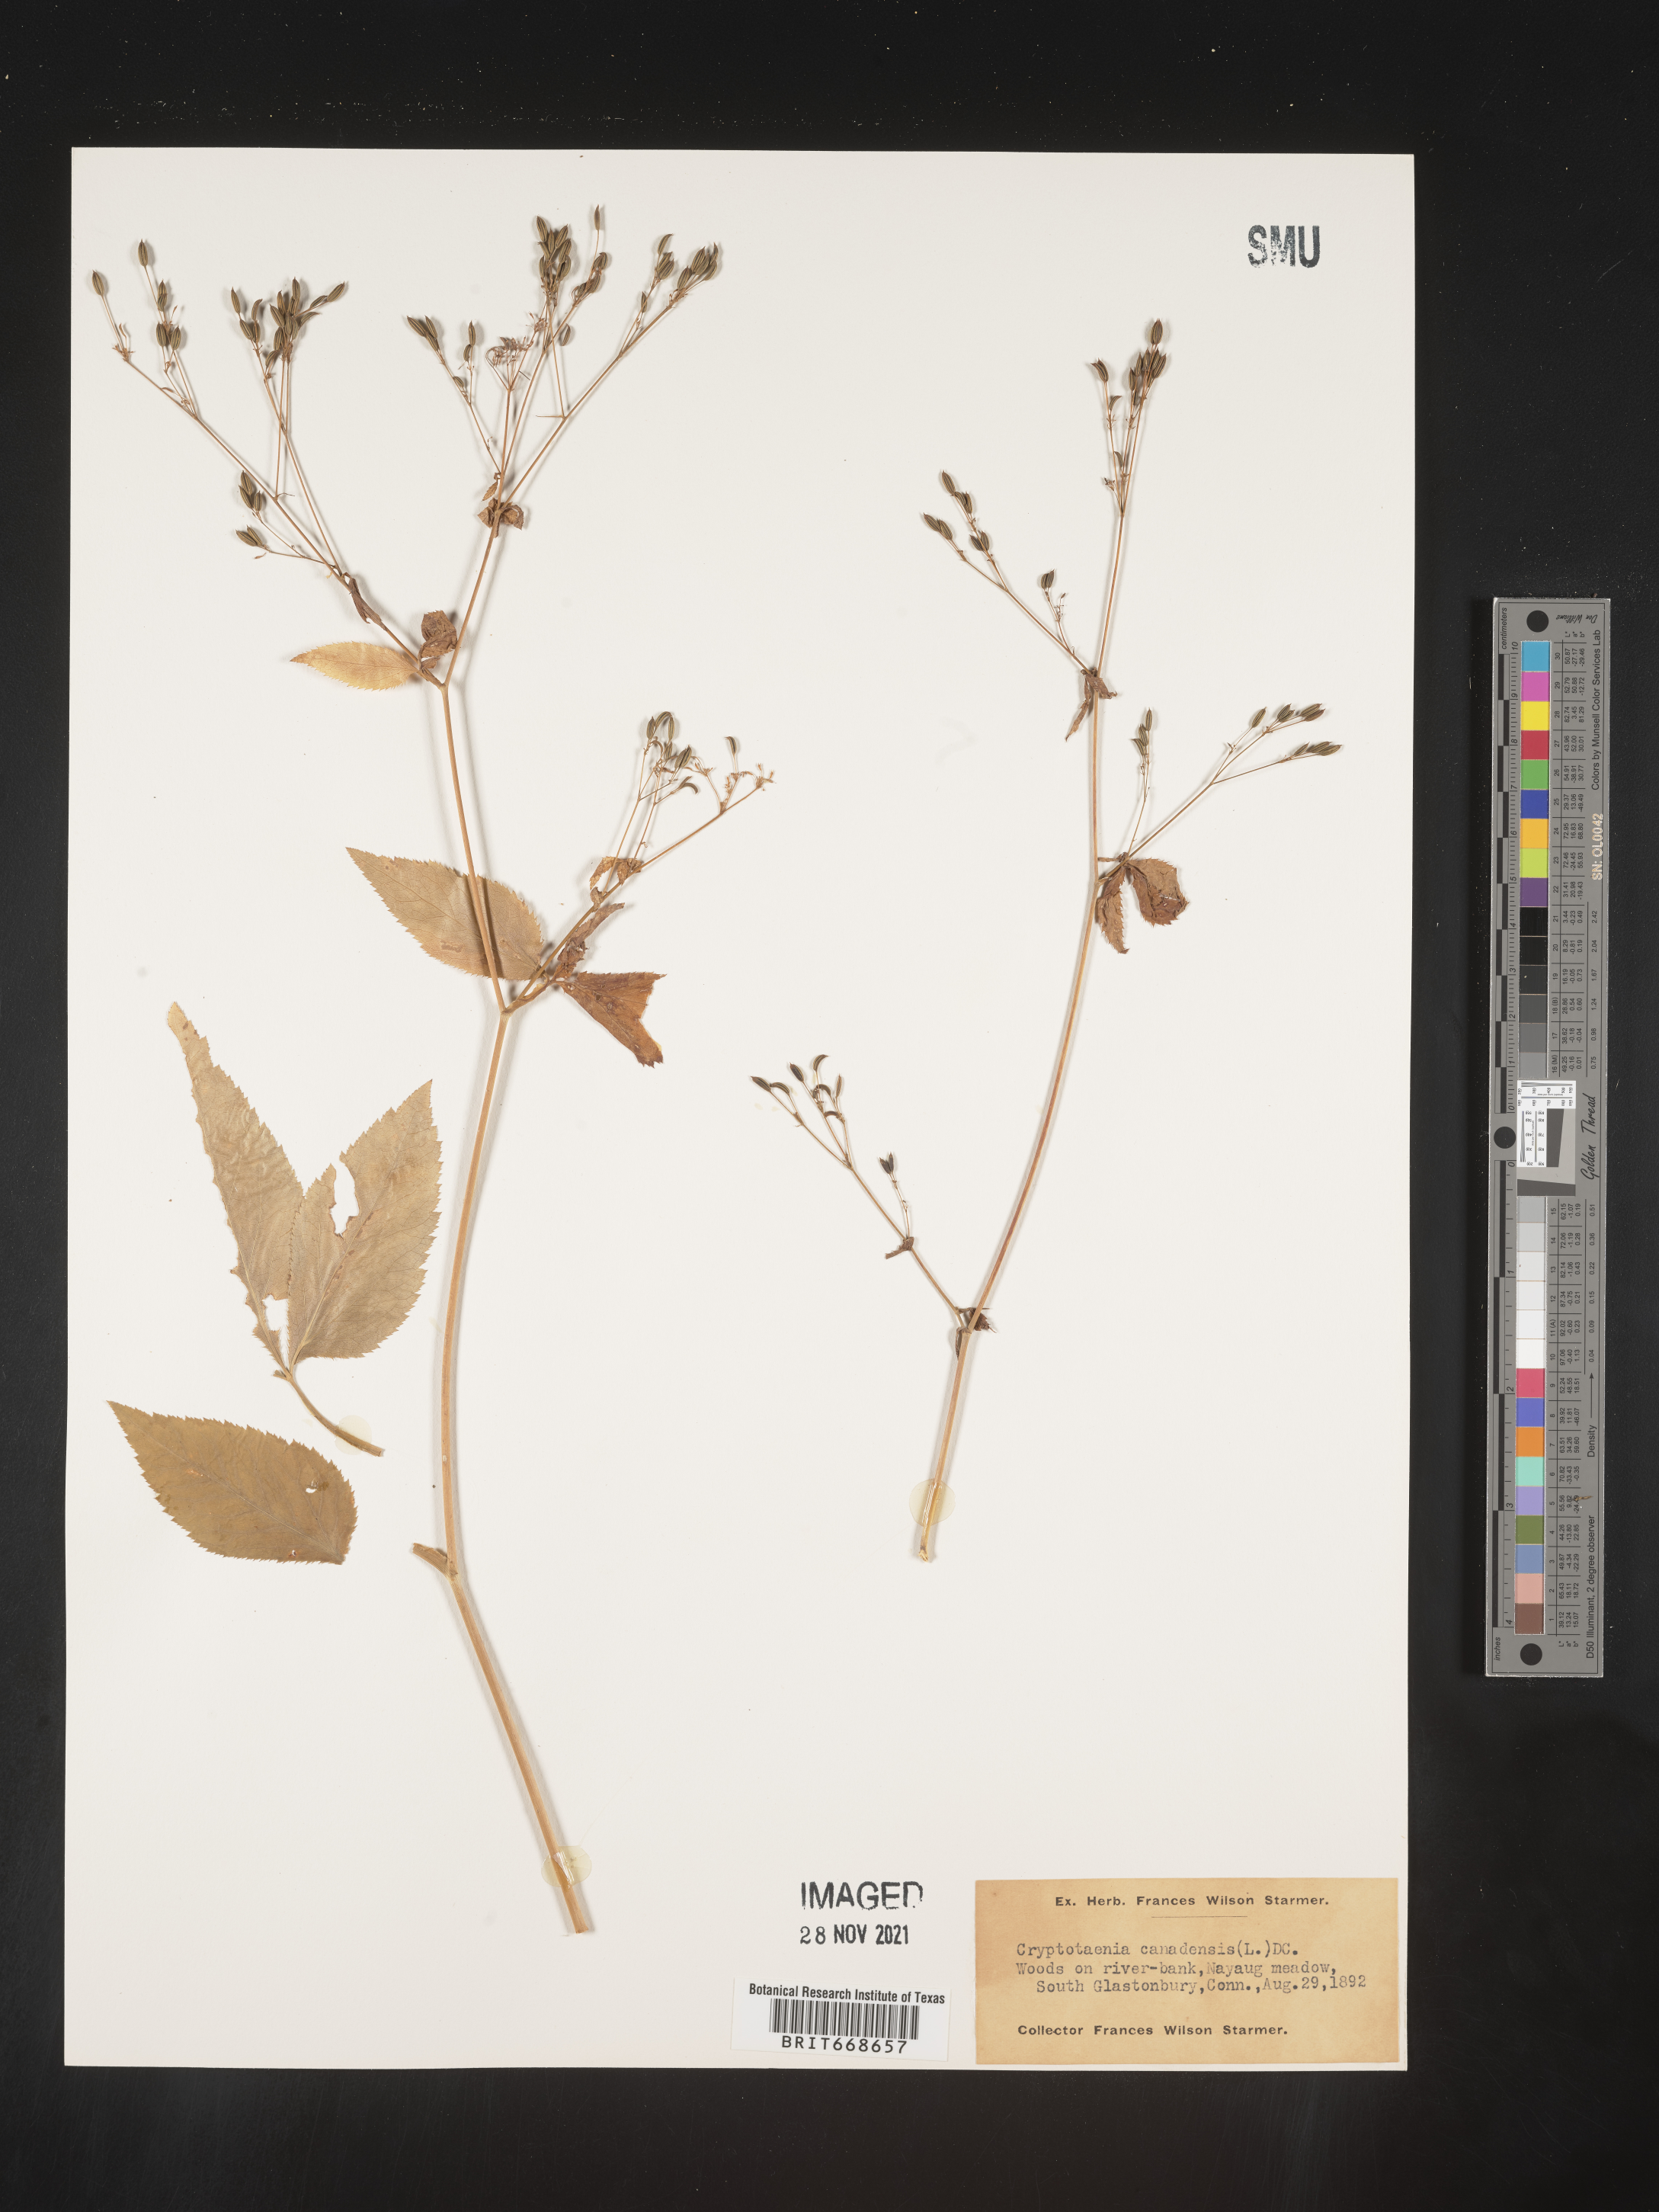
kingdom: Plantae
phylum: Tracheophyta
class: Magnoliopsida
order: Apiales
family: Apiaceae
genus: Cryptotaenia
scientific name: Cryptotaenia canadensis
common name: Honewort
